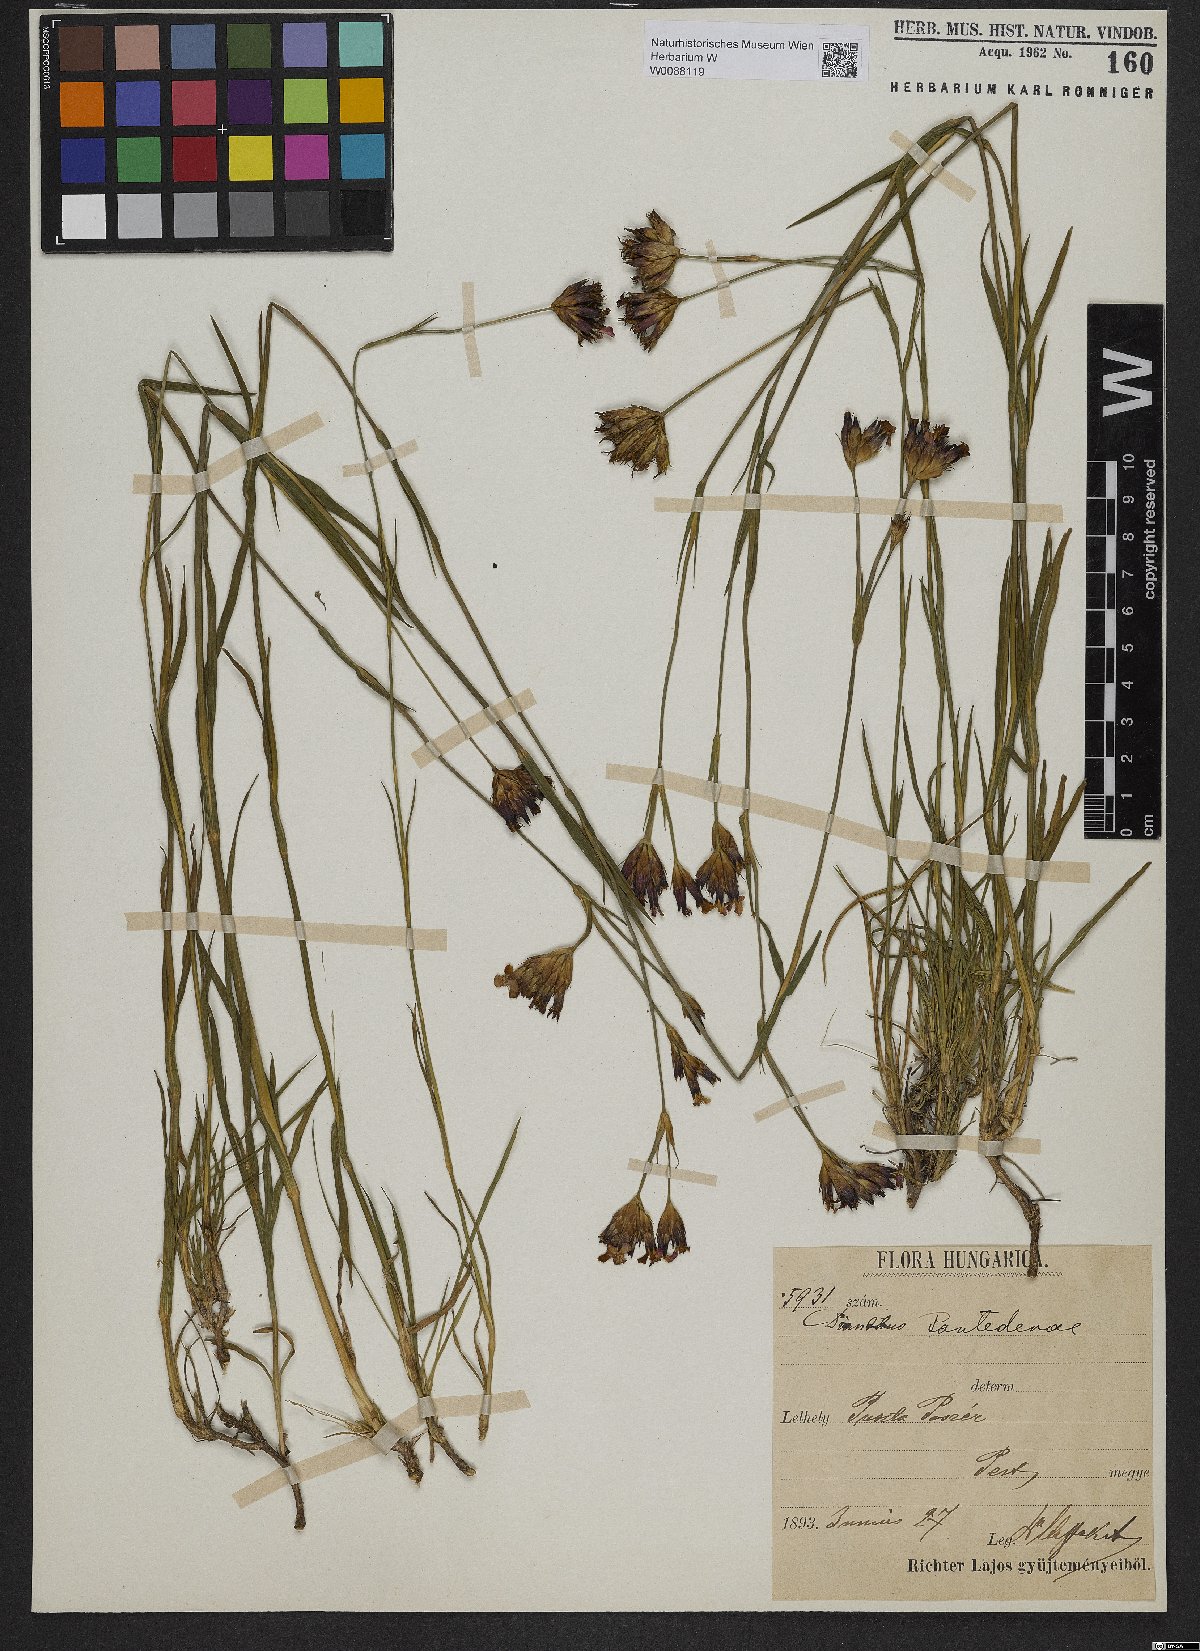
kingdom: Plantae
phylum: Tracheophyta
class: Magnoliopsida
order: Caryophyllales
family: Caryophyllaceae
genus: Dianthus
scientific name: Dianthus pontederae
